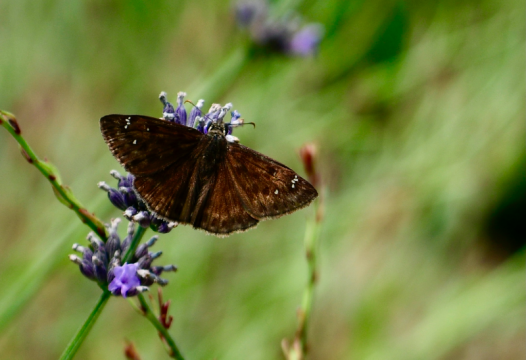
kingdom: Animalia
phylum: Arthropoda
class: Insecta
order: Lepidoptera
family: Hesperiidae
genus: Gesta
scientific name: Gesta
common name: Horace's Duskywing
